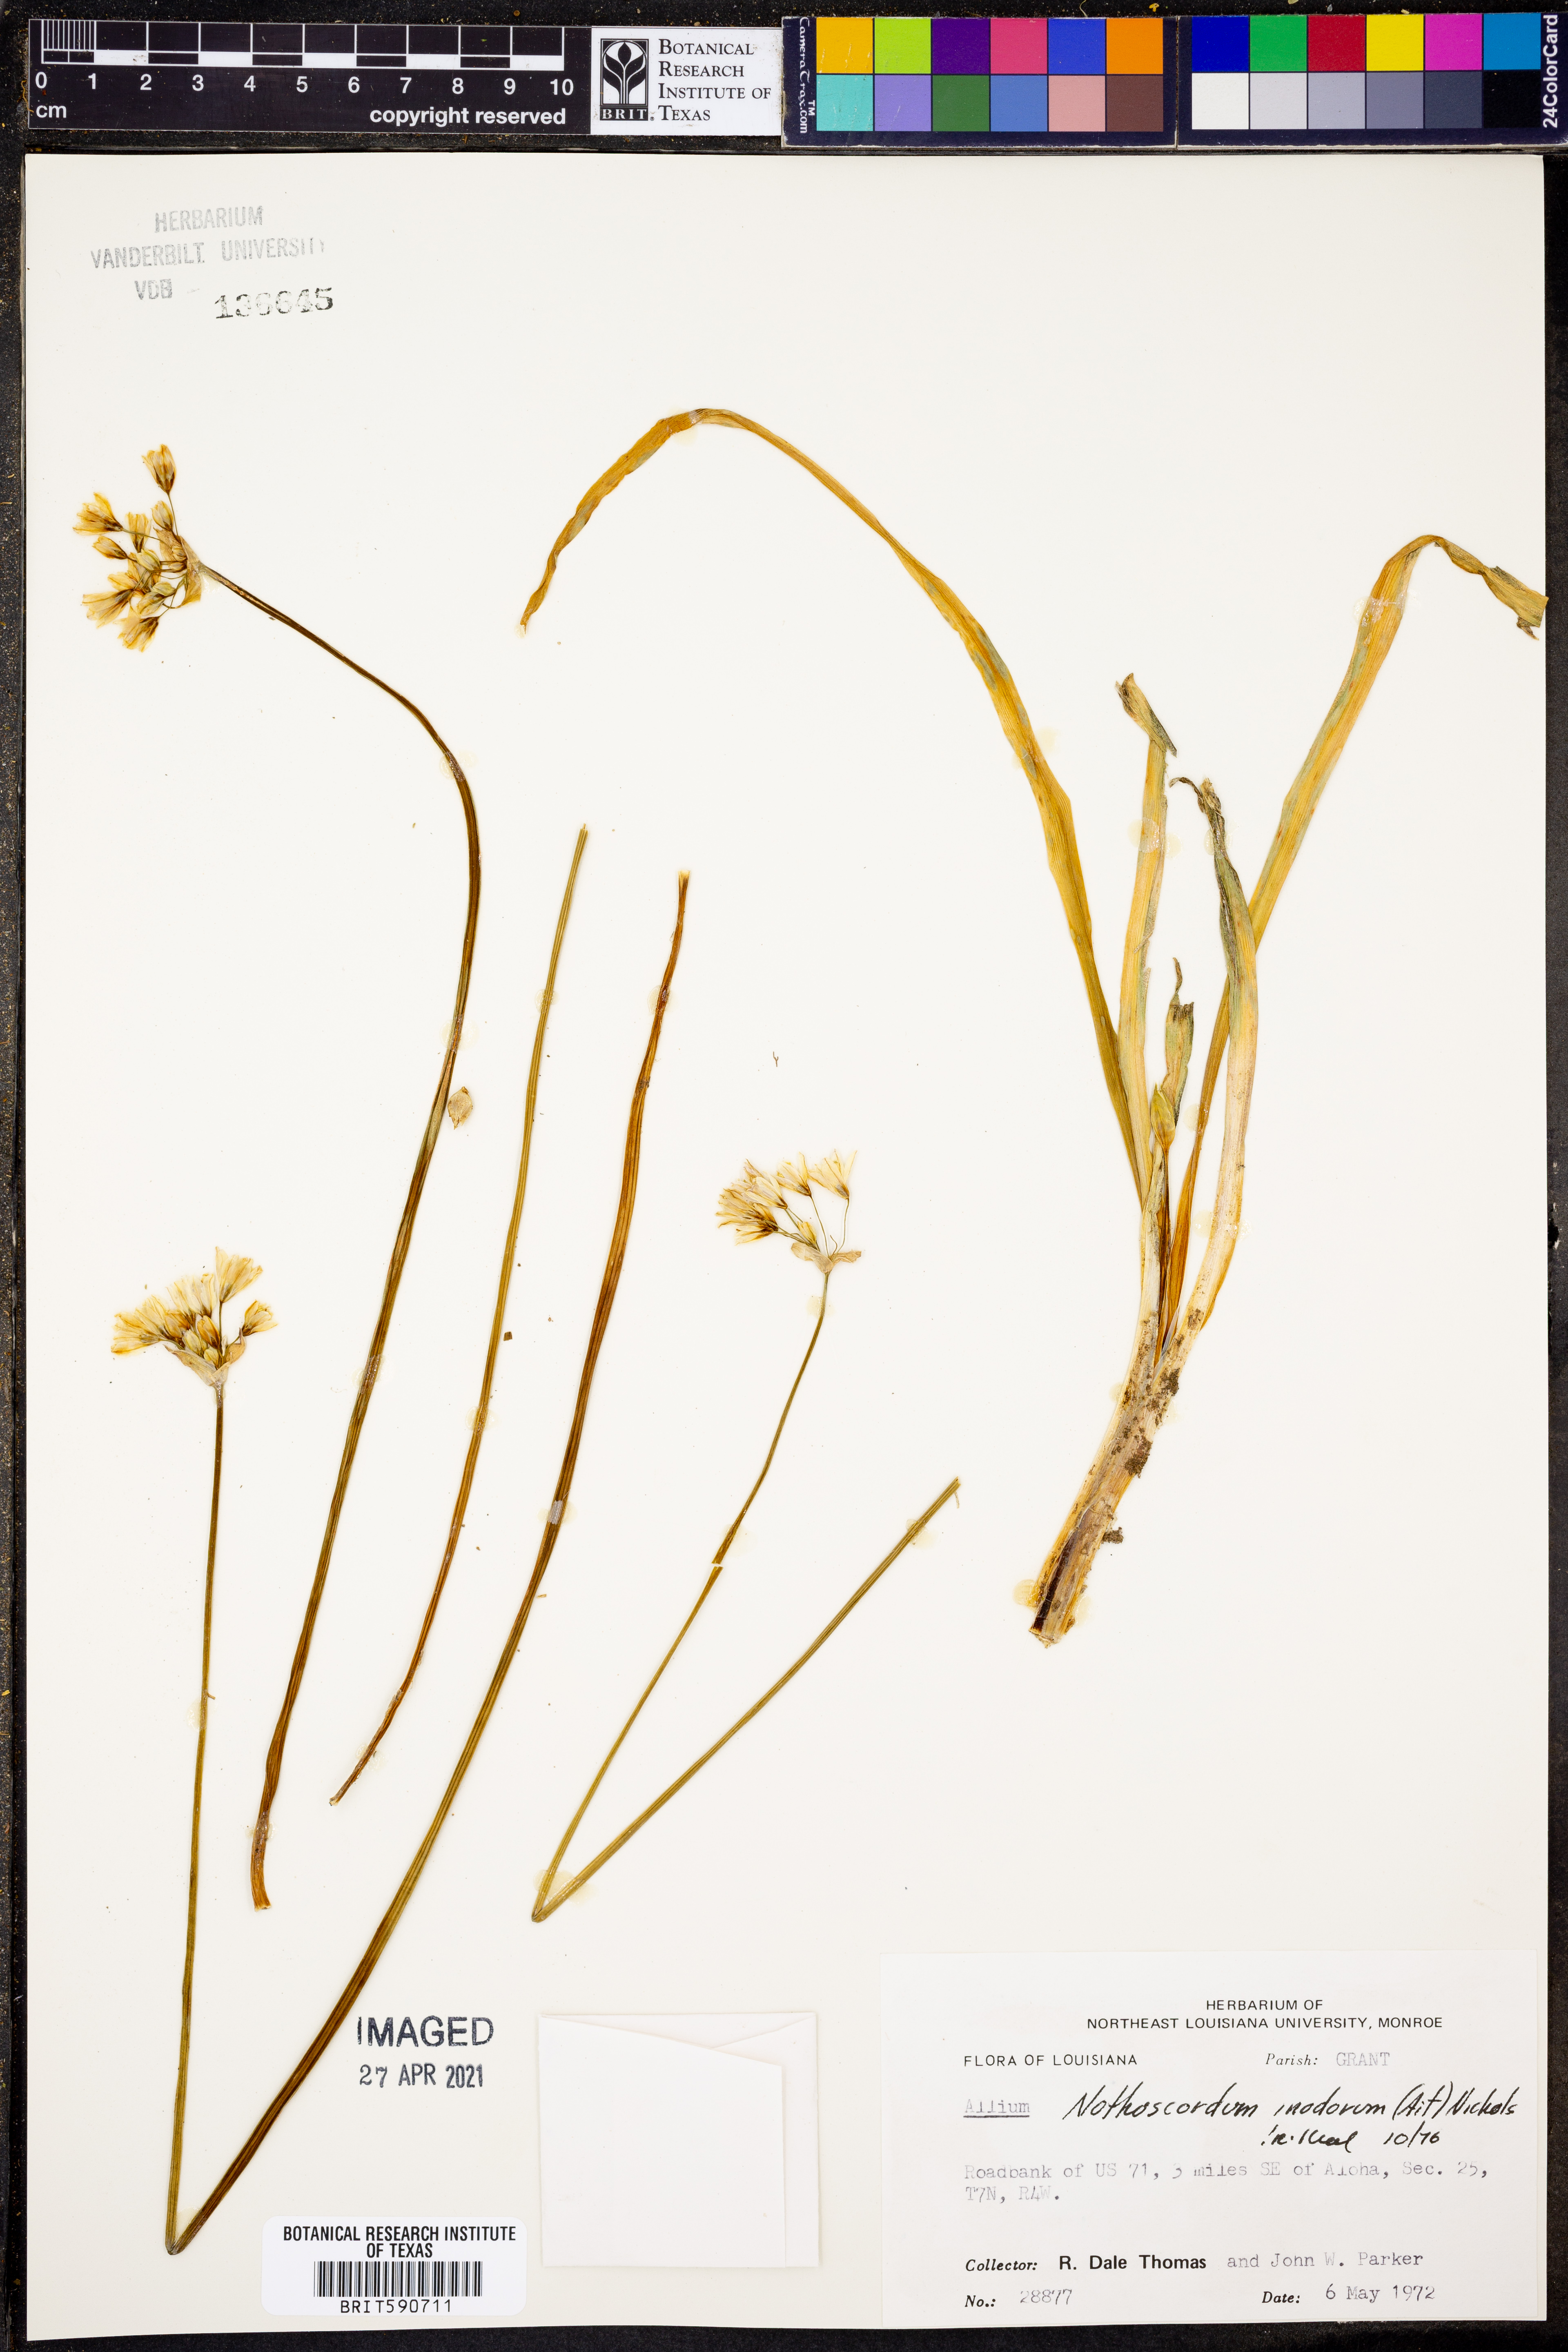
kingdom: Plantae
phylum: Tracheophyta
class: Liliopsida
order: Asparagales
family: Amaryllidaceae
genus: Allium
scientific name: Allium neapolitanum
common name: Neapolitan garlic
